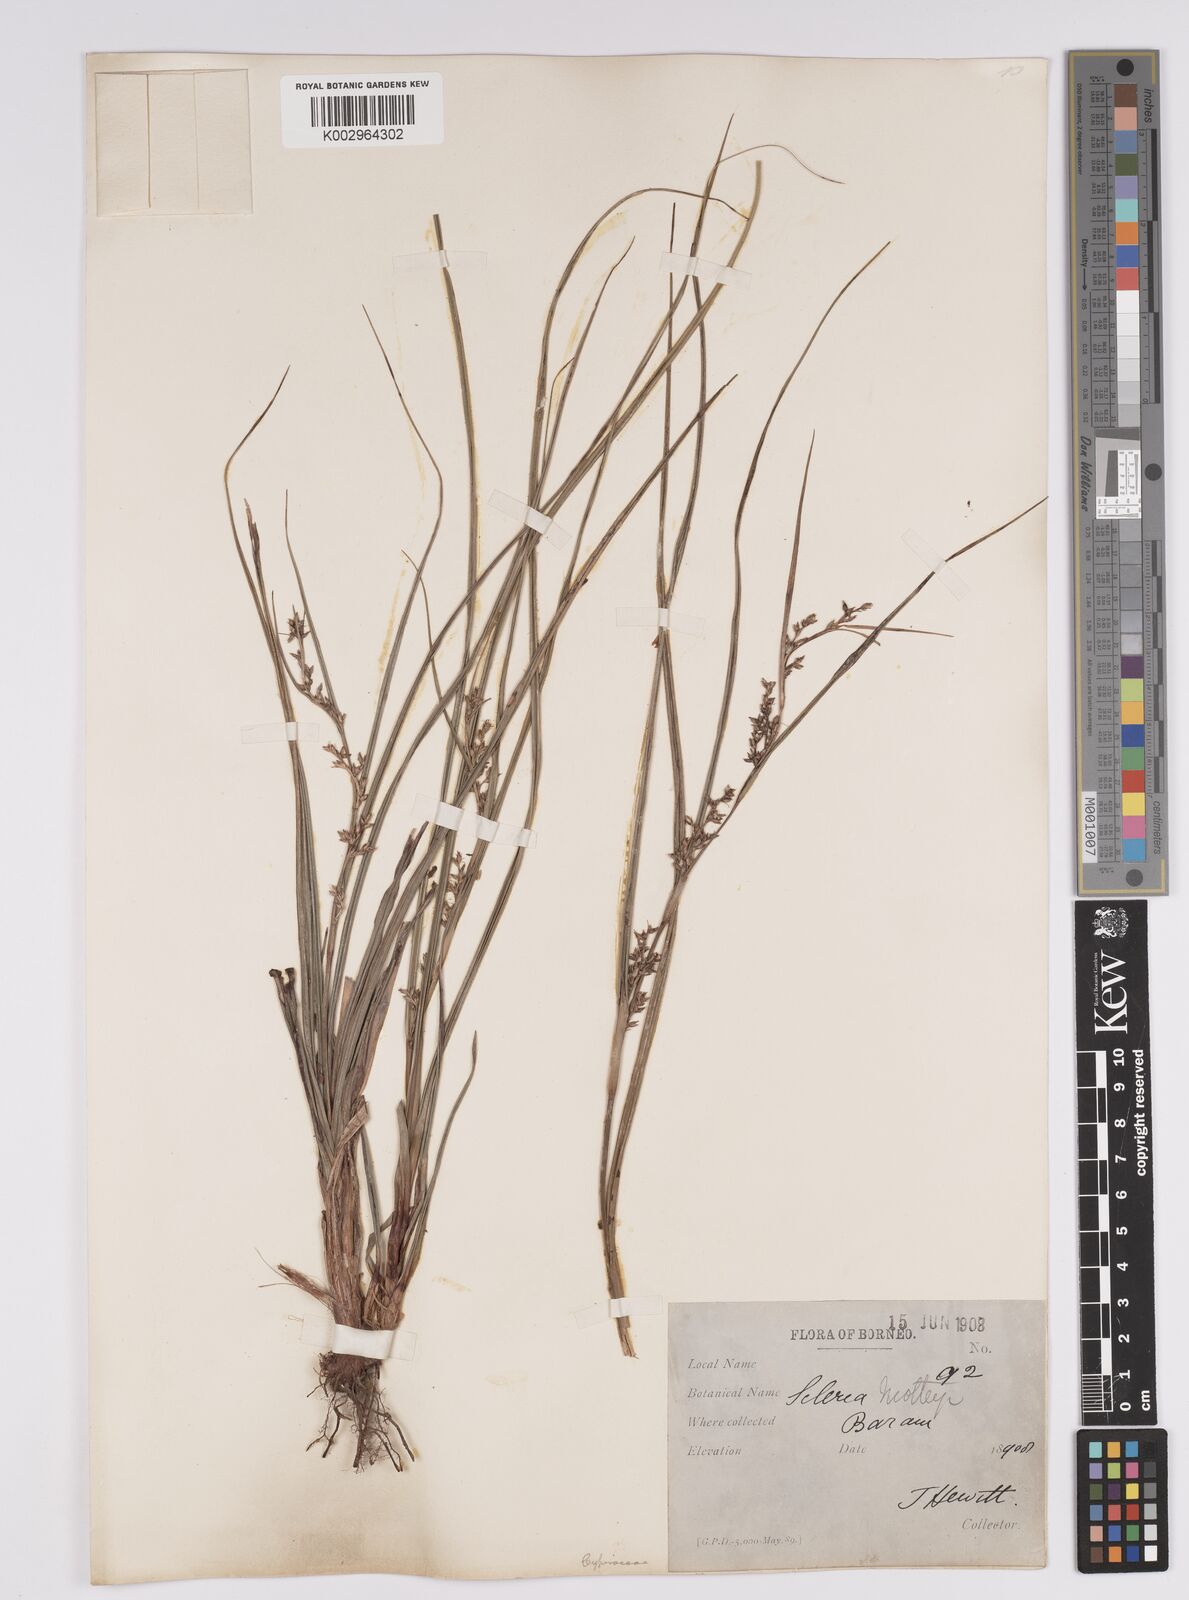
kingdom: Plantae
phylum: Tracheophyta
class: Liliopsida
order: Poales
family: Cyperaceae
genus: Scleria
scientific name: Scleria motleyi
